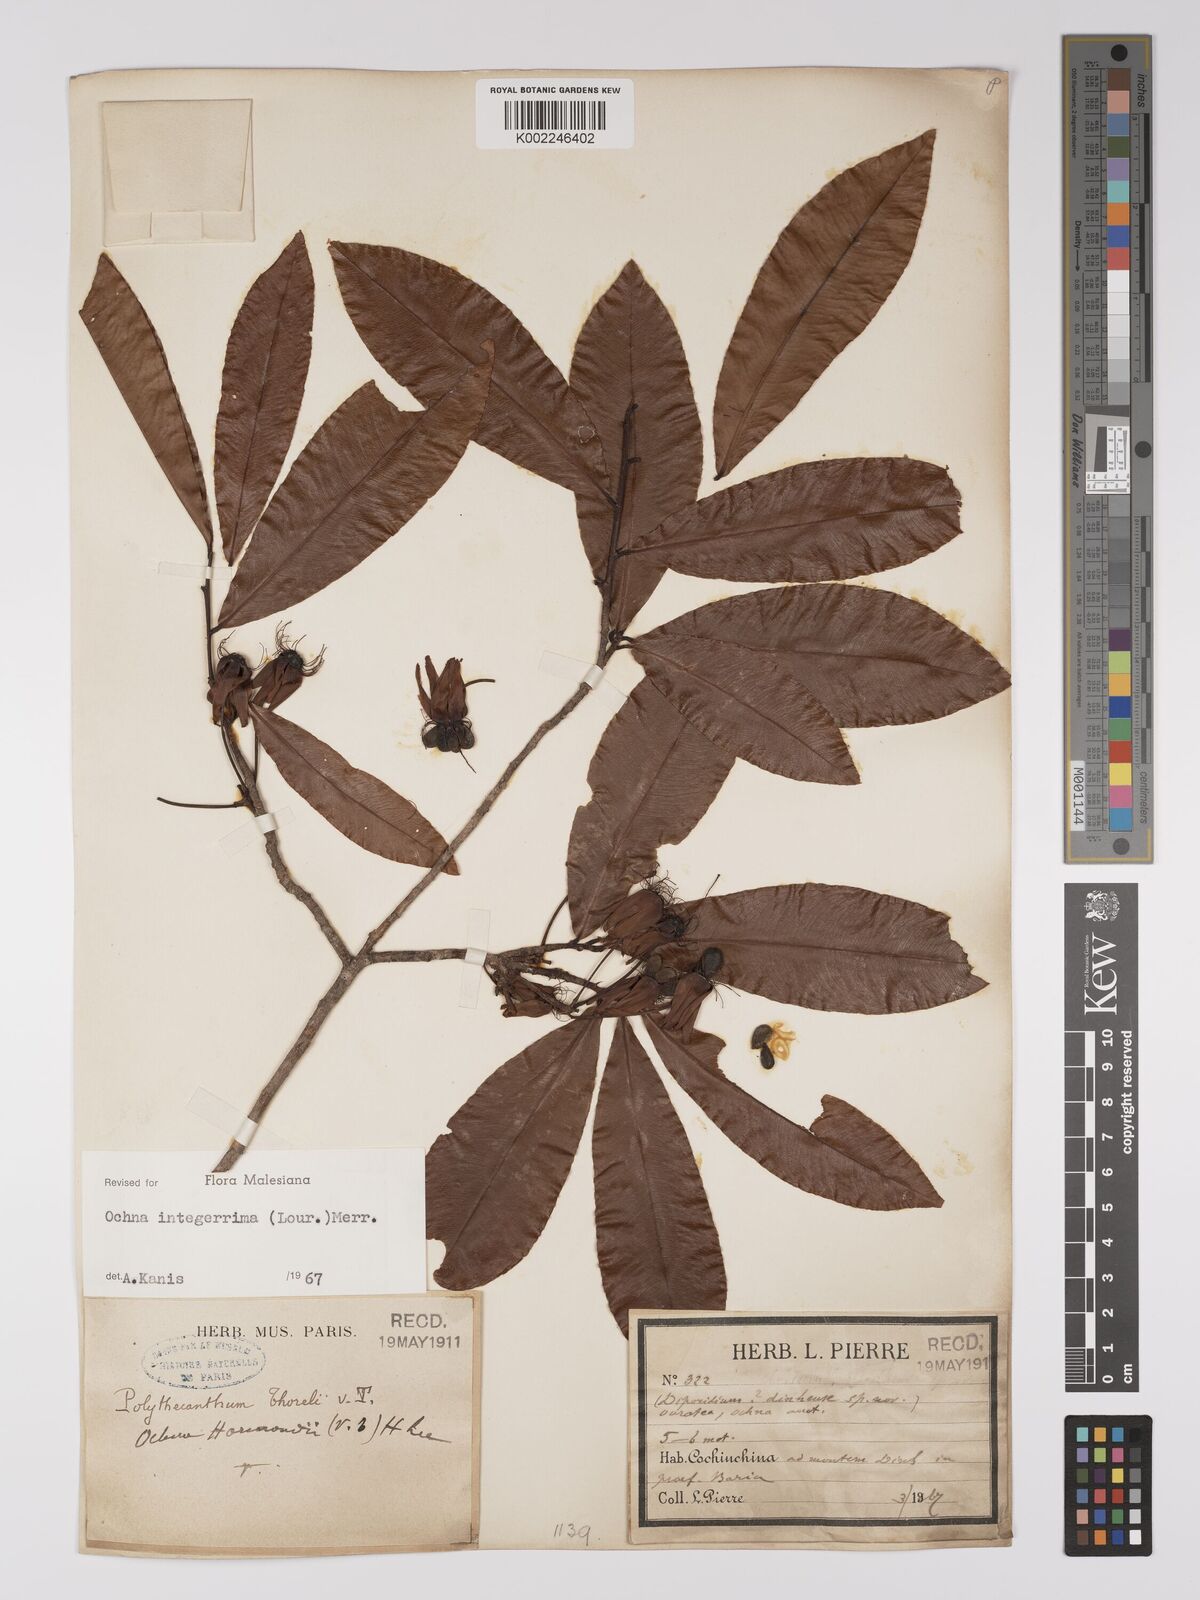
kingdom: Plantae
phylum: Tracheophyta
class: Magnoliopsida
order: Malpighiales
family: Ochnaceae
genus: Ochna
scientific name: Ochna integerrima
